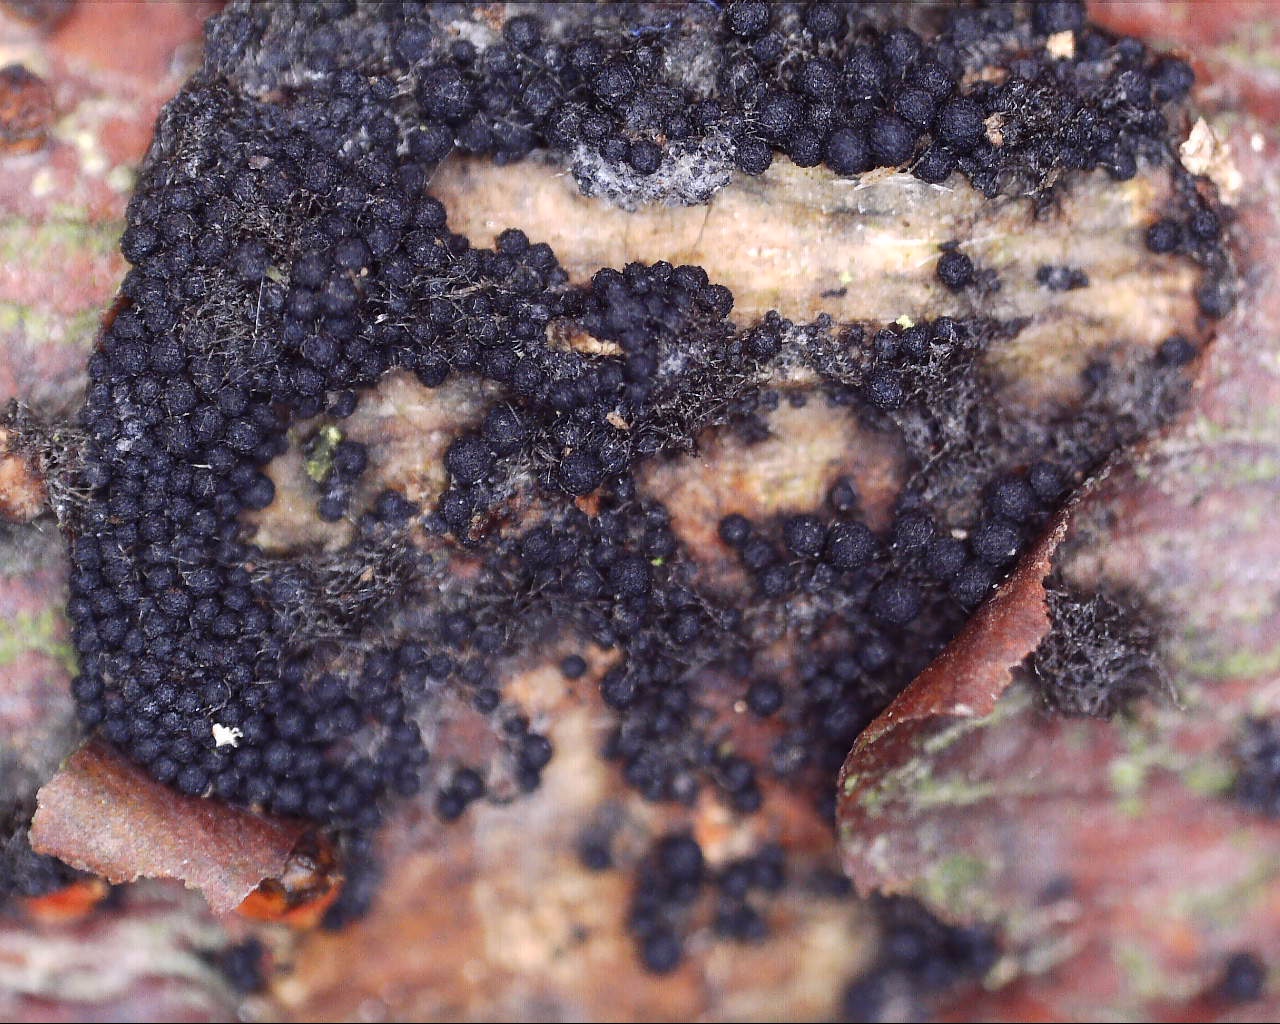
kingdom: Fungi
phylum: Ascomycota
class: Sordariomycetes
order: Coronophorales
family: Nitschkiaceae
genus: Nitschkia
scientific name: Nitschkia parasitans
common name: snyltende skålkerne
